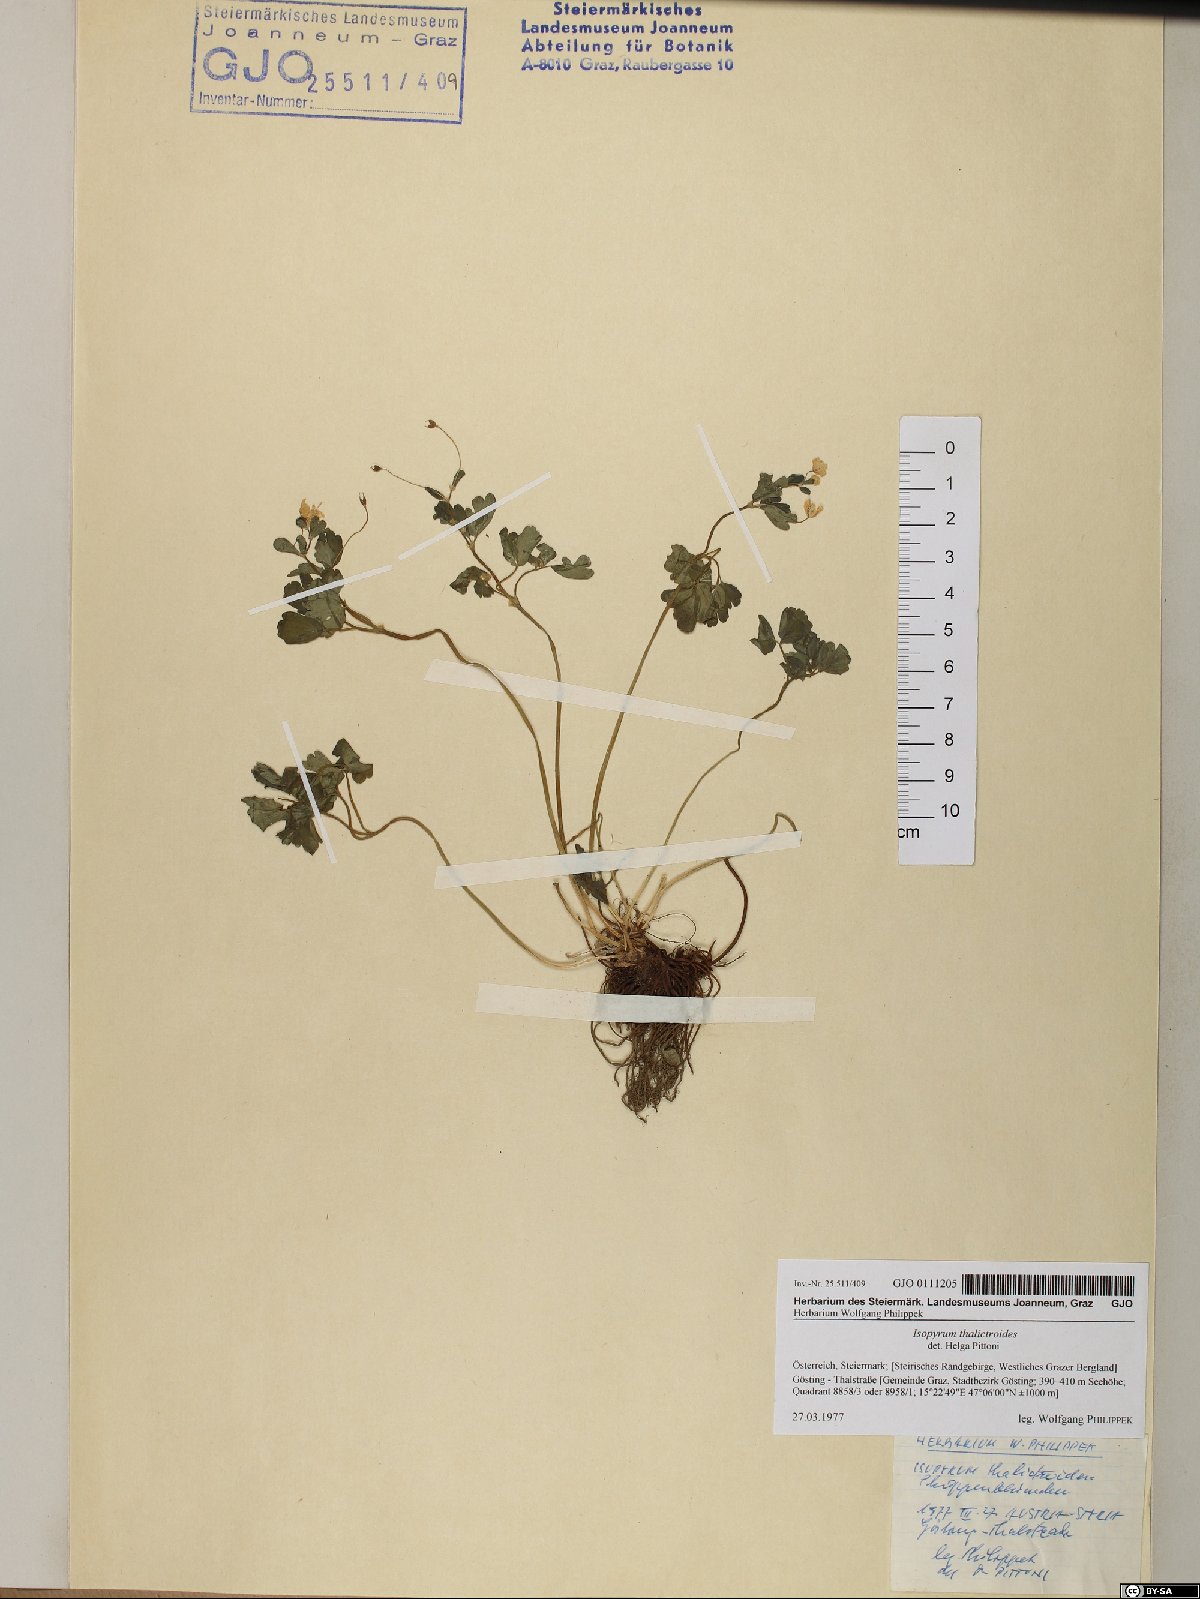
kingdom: Plantae
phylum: Tracheophyta
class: Magnoliopsida
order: Ranunculales
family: Ranunculaceae
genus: Isopyrum
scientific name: Isopyrum thalictroides
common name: Isopyrum
